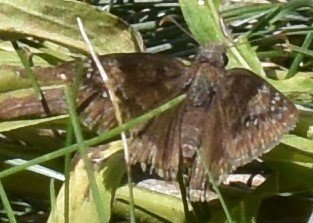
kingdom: Animalia
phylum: Arthropoda
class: Insecta
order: Lepidoptera
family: Hesperiidae
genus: Gesta
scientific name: Gesta
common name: Wild Indigo Duskywing
